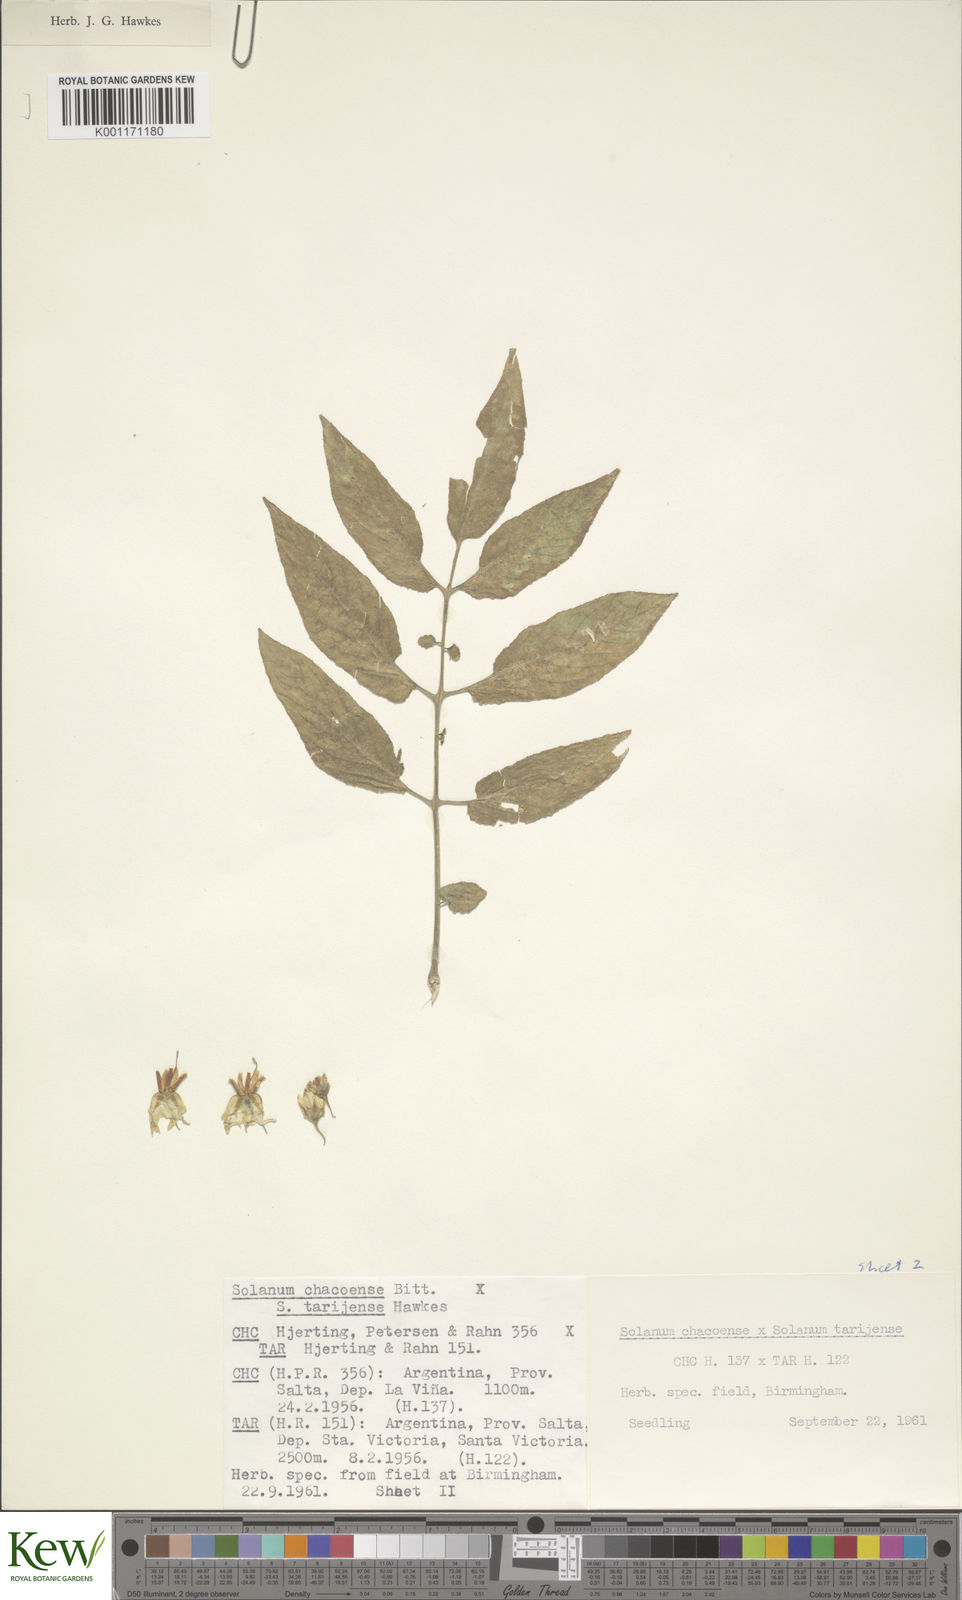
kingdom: Plantae
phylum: Tracheophyta
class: Magnoliopsida
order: Solanales
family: Solanaceae
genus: Solanum
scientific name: Solanum chacoense
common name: Chaco potato
